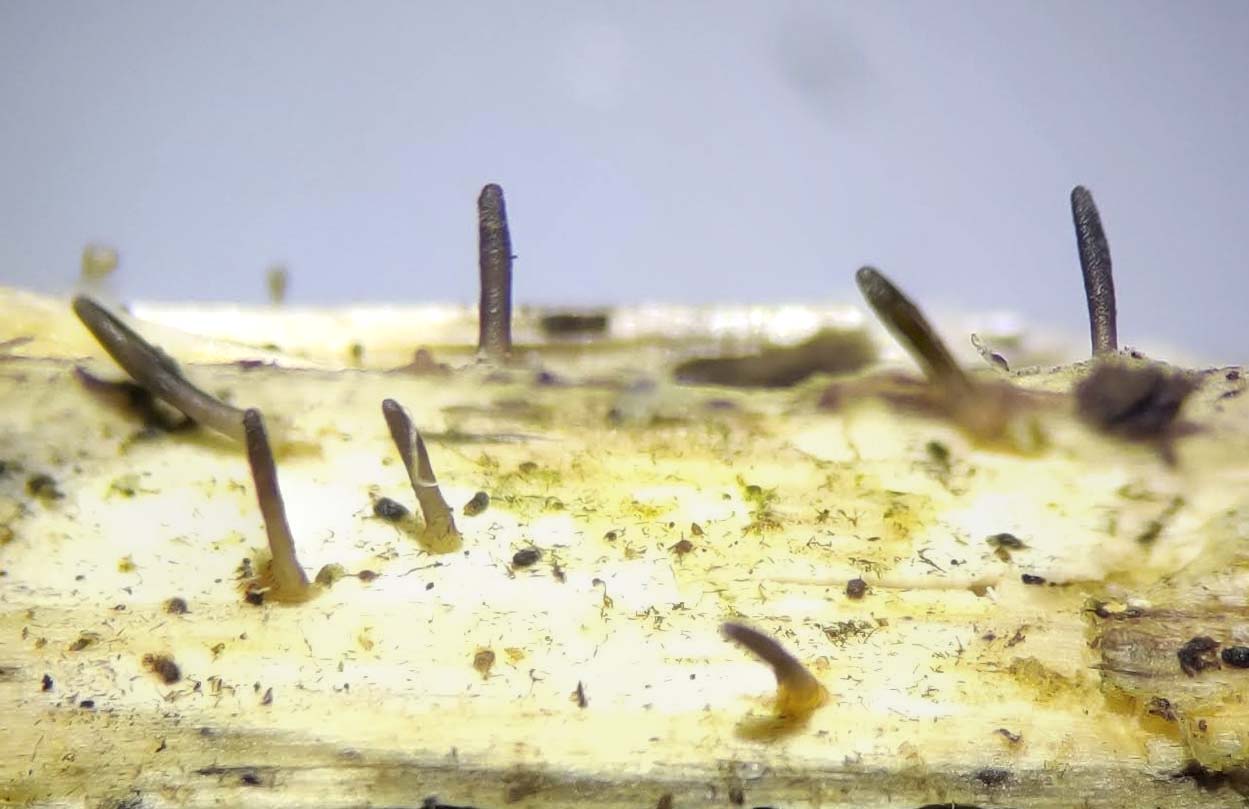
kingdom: Fungi
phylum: Ascomycota
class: Dothideomycetes
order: Acrospermales
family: Acrospermaceae
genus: Acrospermum
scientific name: Acrospermum compressum
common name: nælde-stængeltunge
